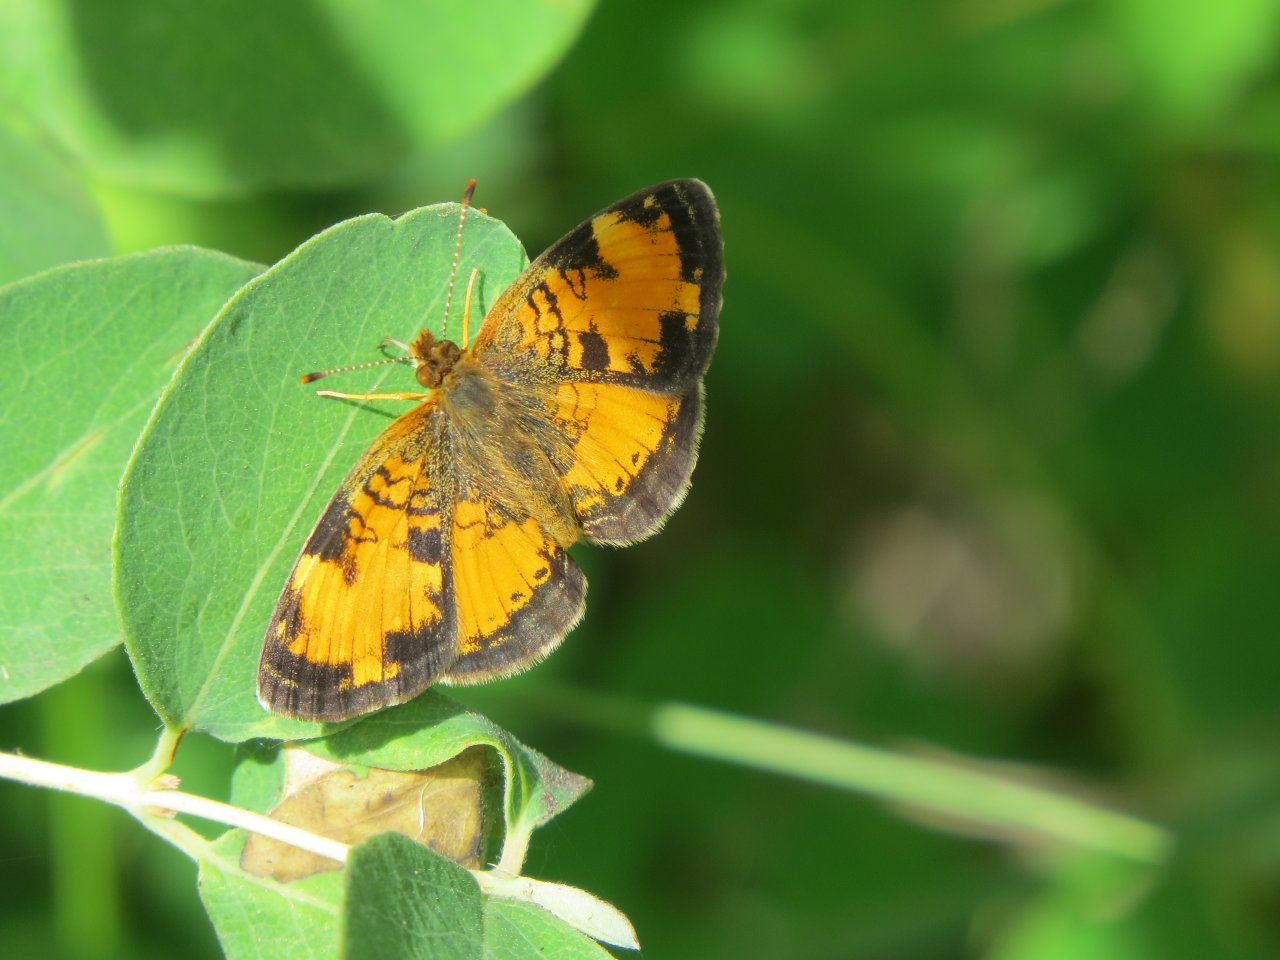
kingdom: Animalia
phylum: Arthropoda
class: Insecta
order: Lepidoptera
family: Nymphalidae
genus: Phyciodes
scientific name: Phyciodes tharos
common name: Northern Crescent
